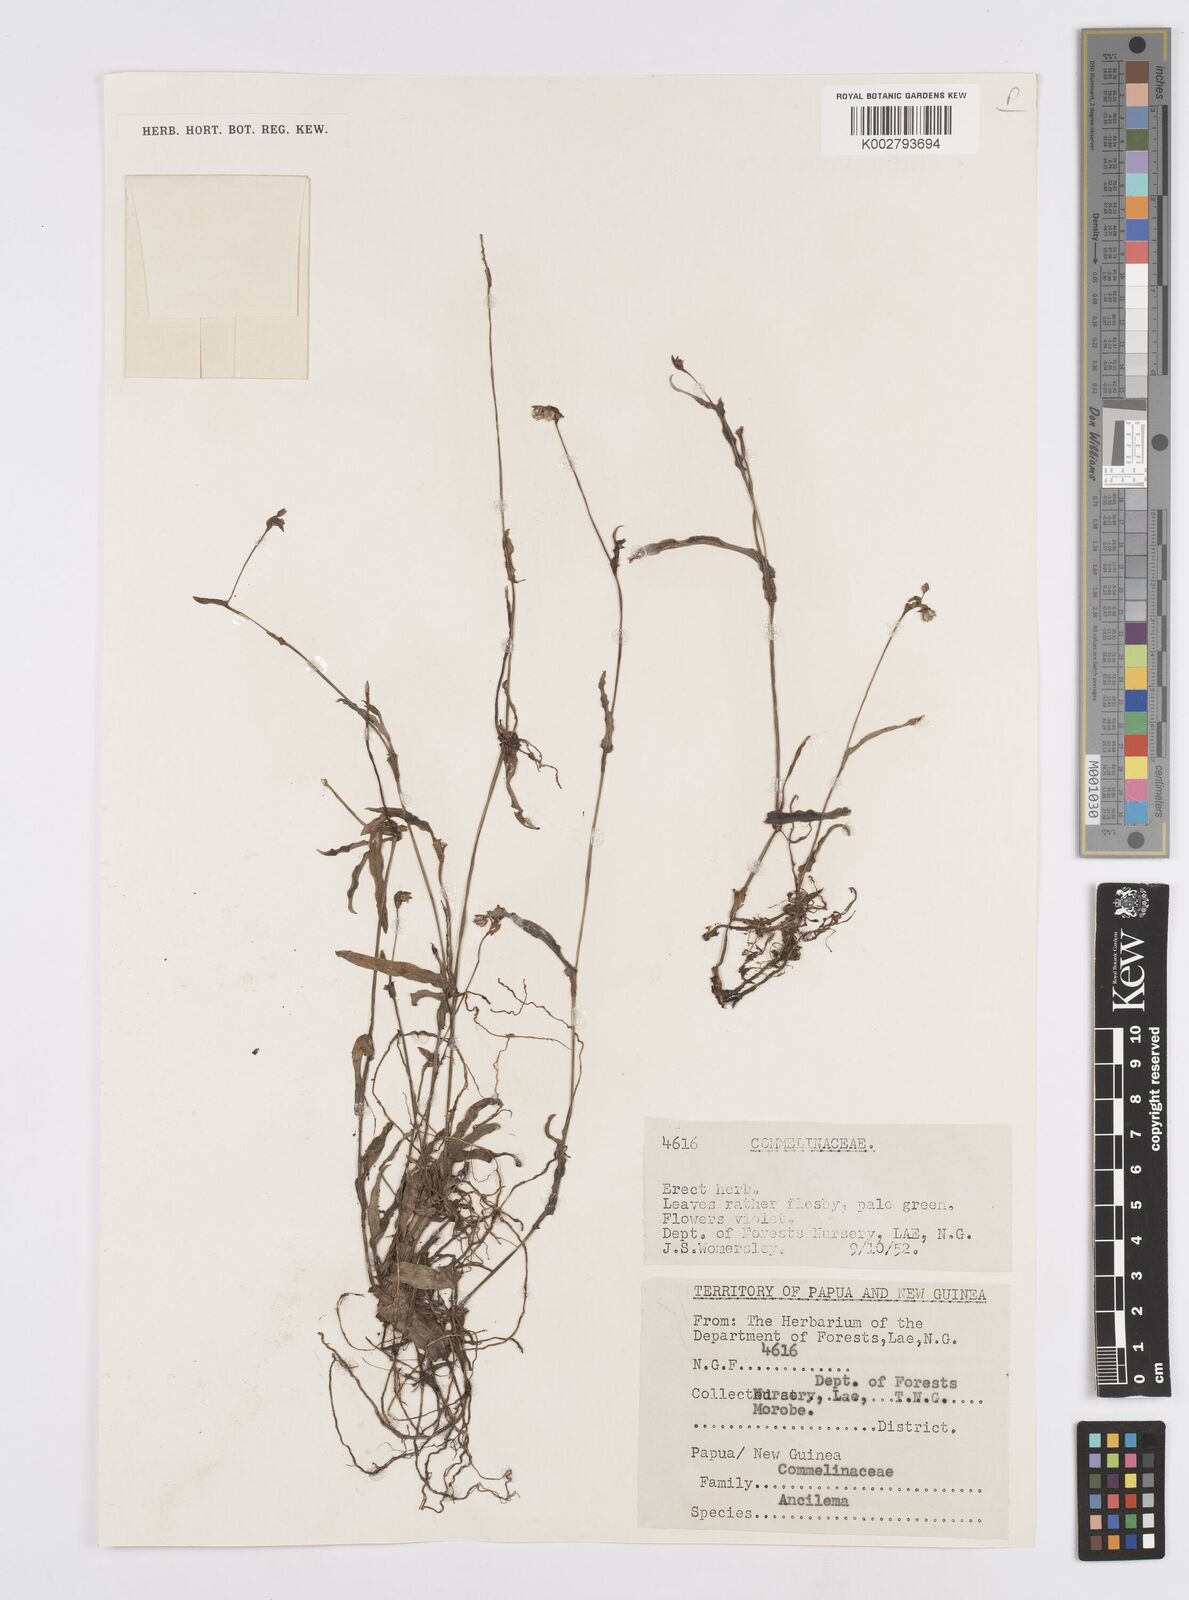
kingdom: Plantae
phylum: Tracheophyta
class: Liliopsida
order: Commelinales
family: Commelinaceae
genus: Murdannia
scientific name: Murdannia
